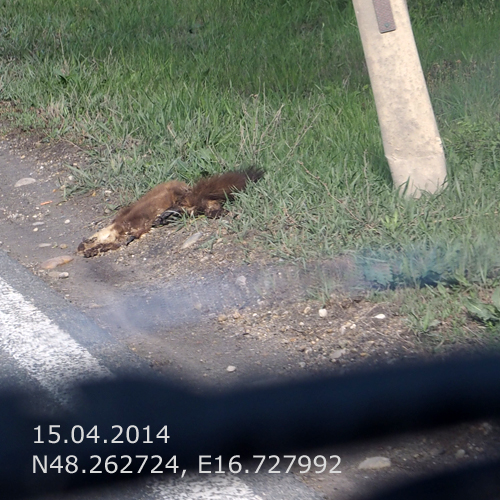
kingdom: Animalia
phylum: Chordata
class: Mammalia
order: Carnivora
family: Mustelidae
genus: Martes
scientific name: Martes martes
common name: European pine marten
